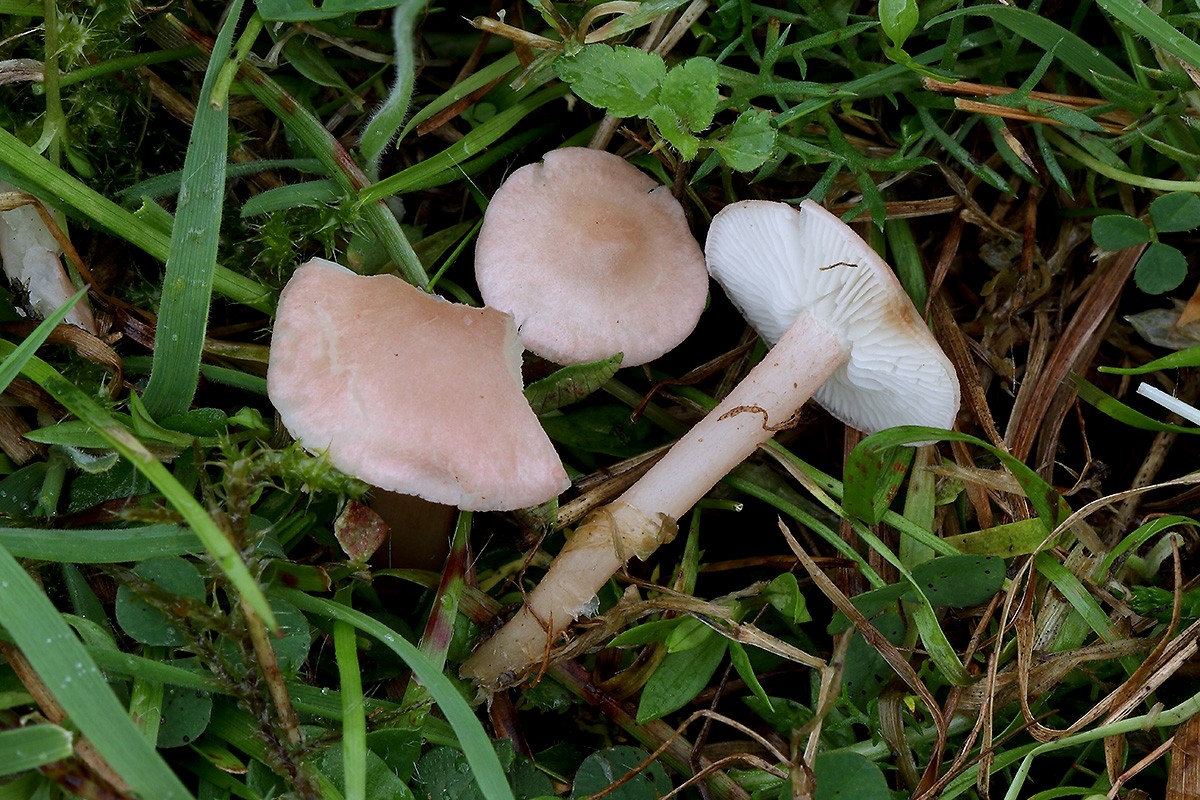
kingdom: Fungi
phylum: Basidiomycota
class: Agaricomycetes
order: Agaricales
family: Lyophyllaceae
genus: Calocybe
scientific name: Calocybe carnea
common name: rosa fagerhat
